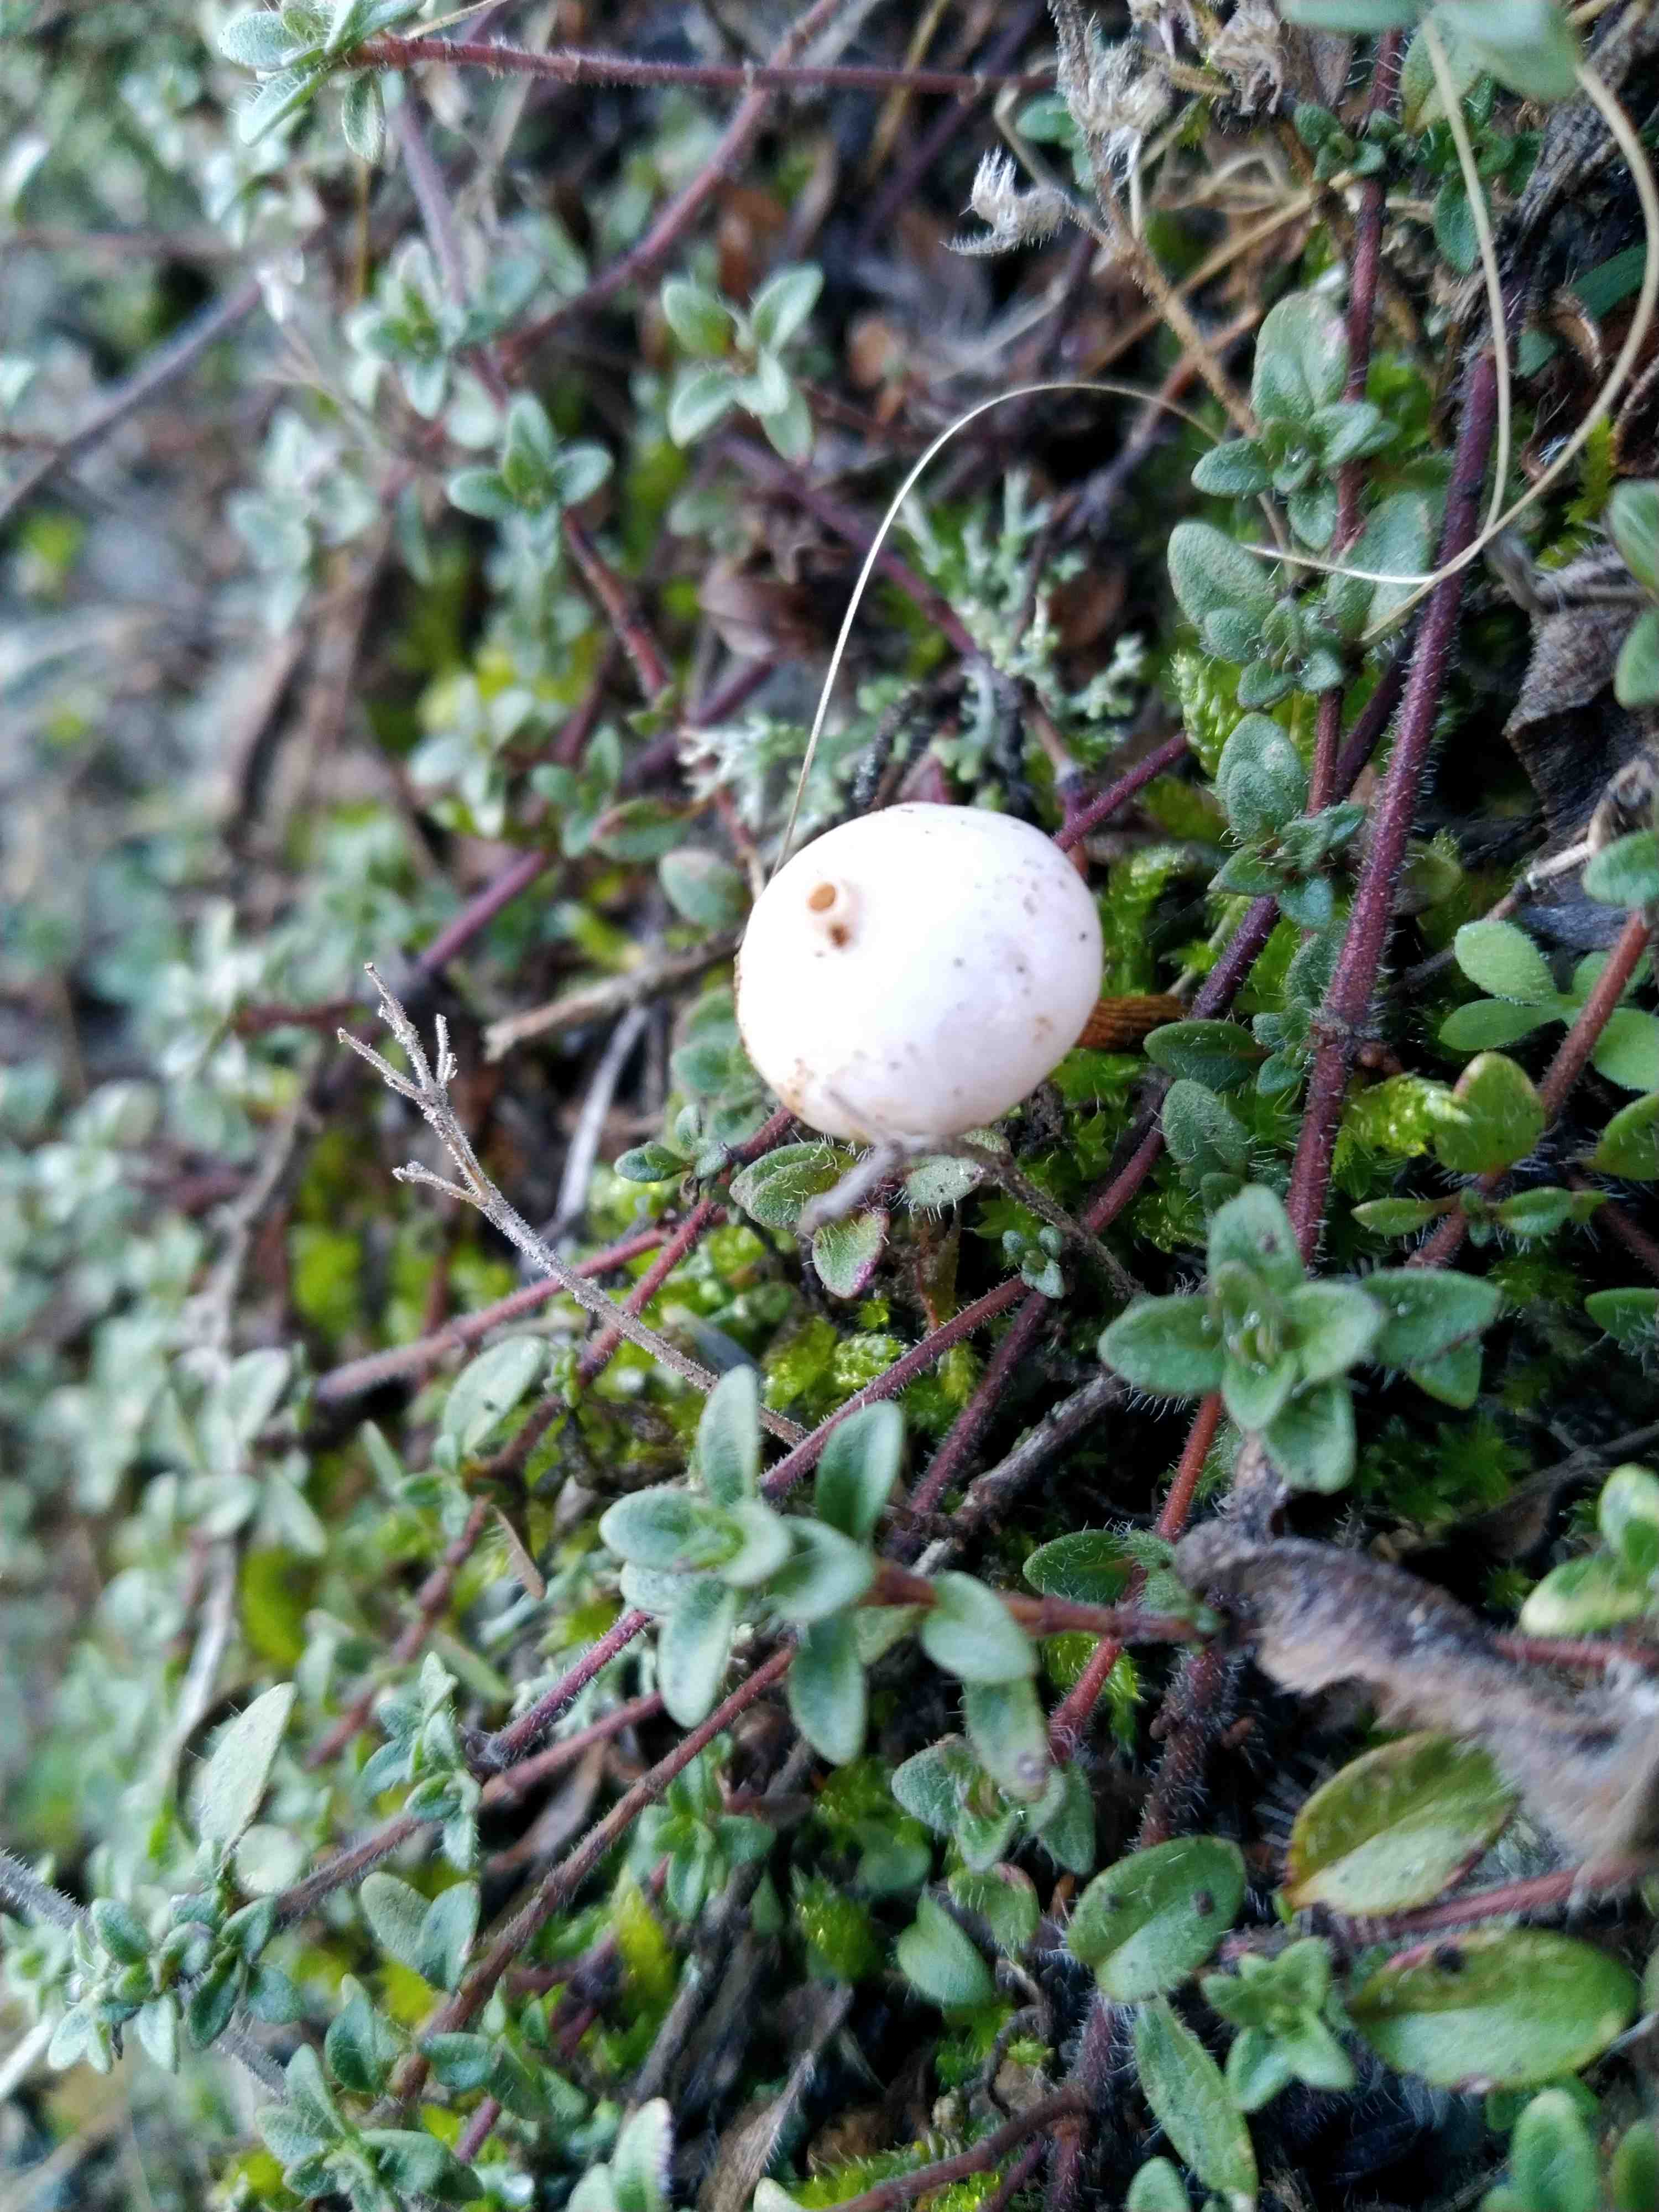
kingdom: Fungi
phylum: Basidiomycota
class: Agaricomycetes
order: Agaricales
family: Agaricaceae
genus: Tulostoma
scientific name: Tulostoma
